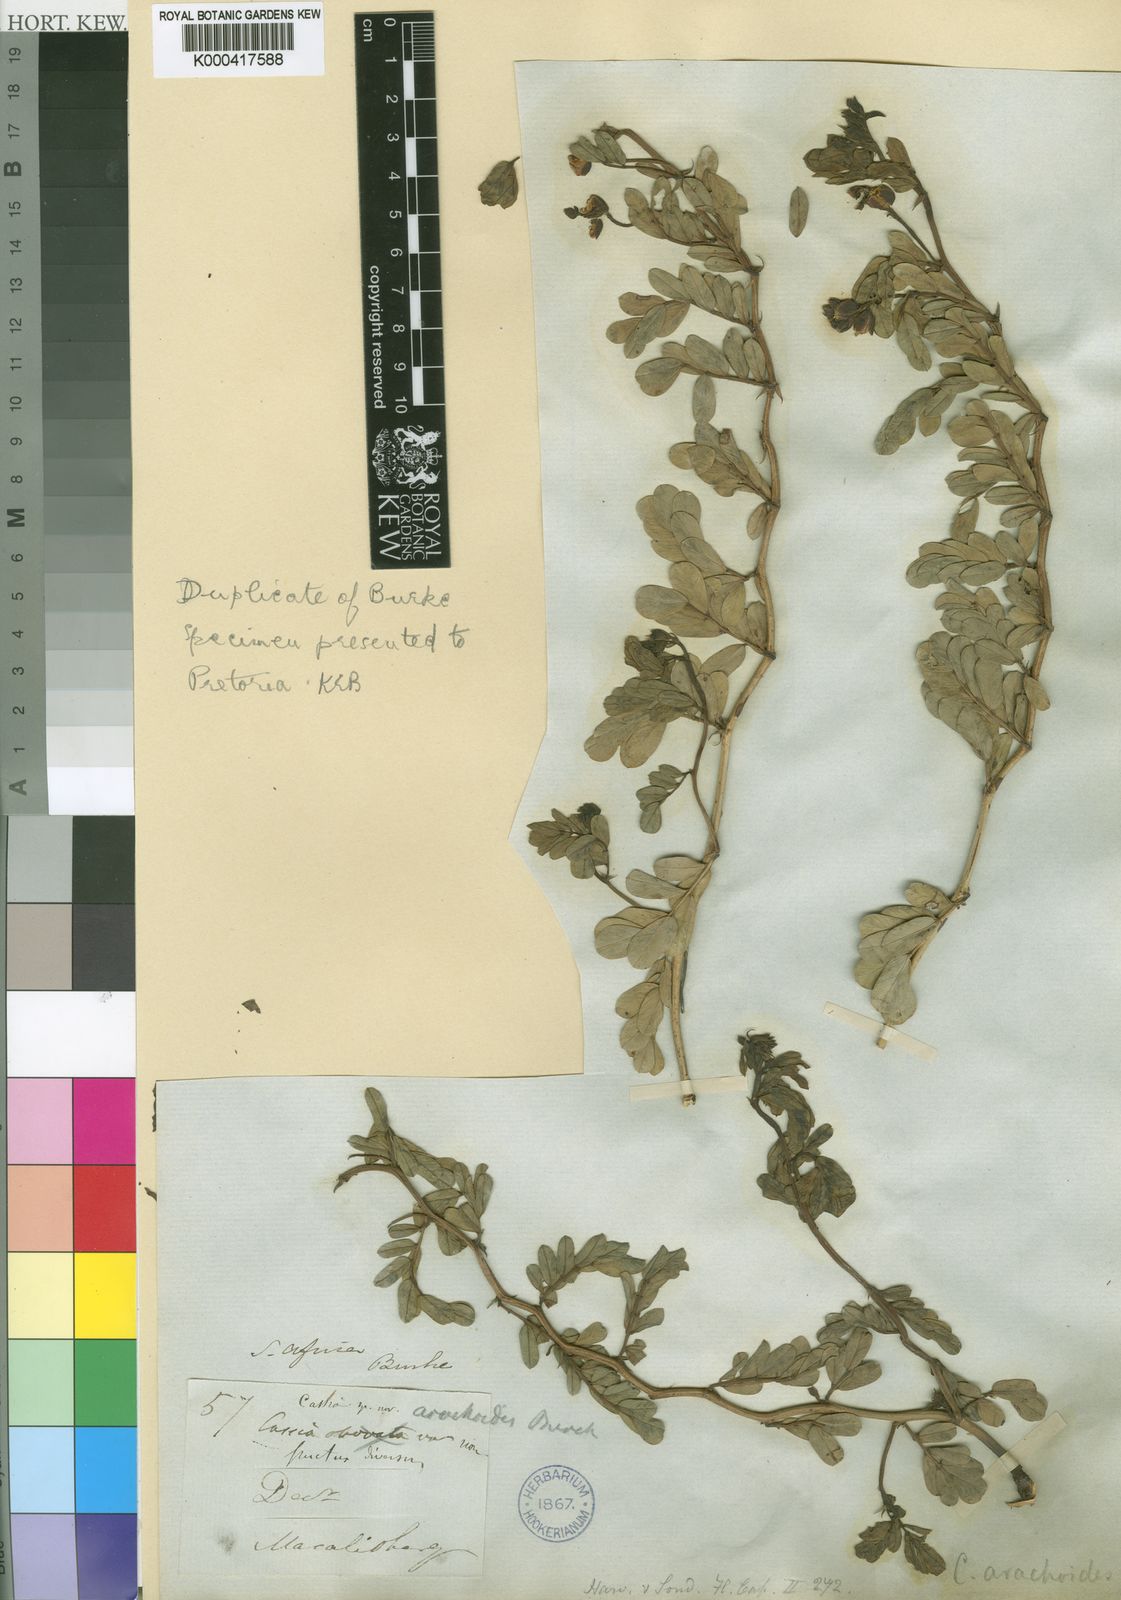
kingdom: Plantae
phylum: Tracheophyta
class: Magnoliopsida
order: Fabales
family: Fabaceae
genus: Cassia
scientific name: Cassia
